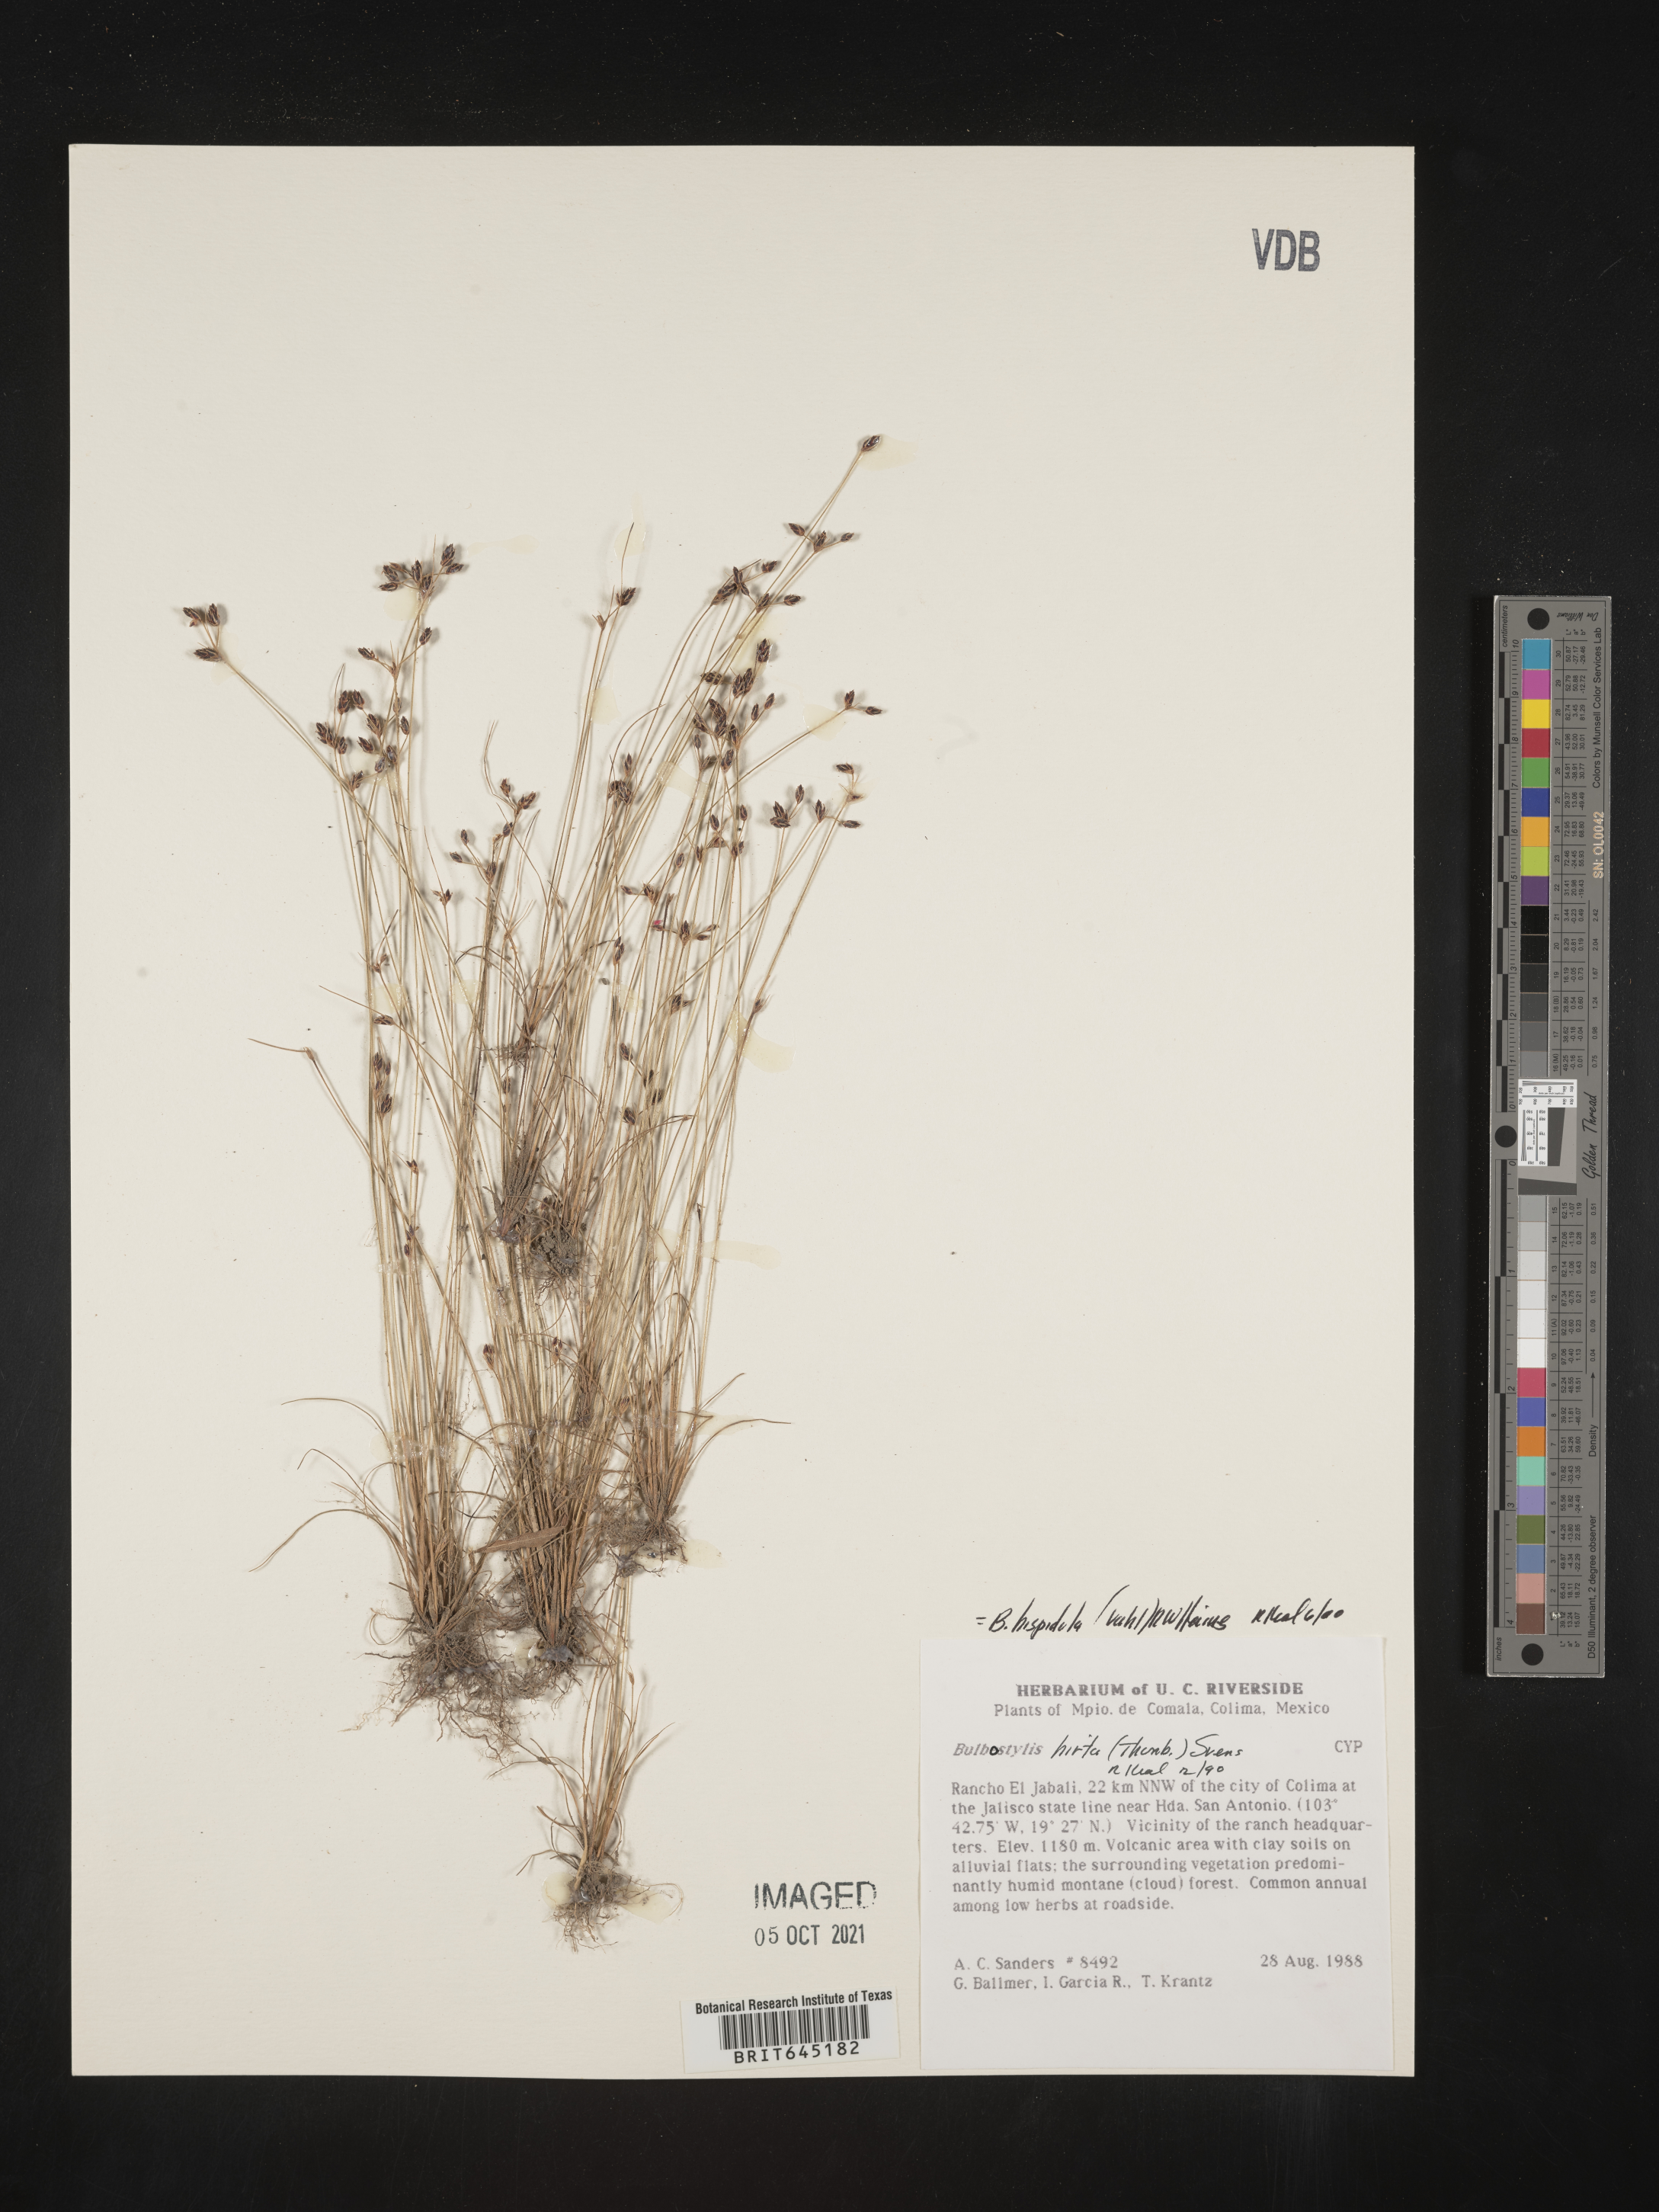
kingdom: Plantae
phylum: Tracheophyta
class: Liliopsida
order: Poales
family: Cyperaceae
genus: Bulbostylis
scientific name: Bulbostylis
